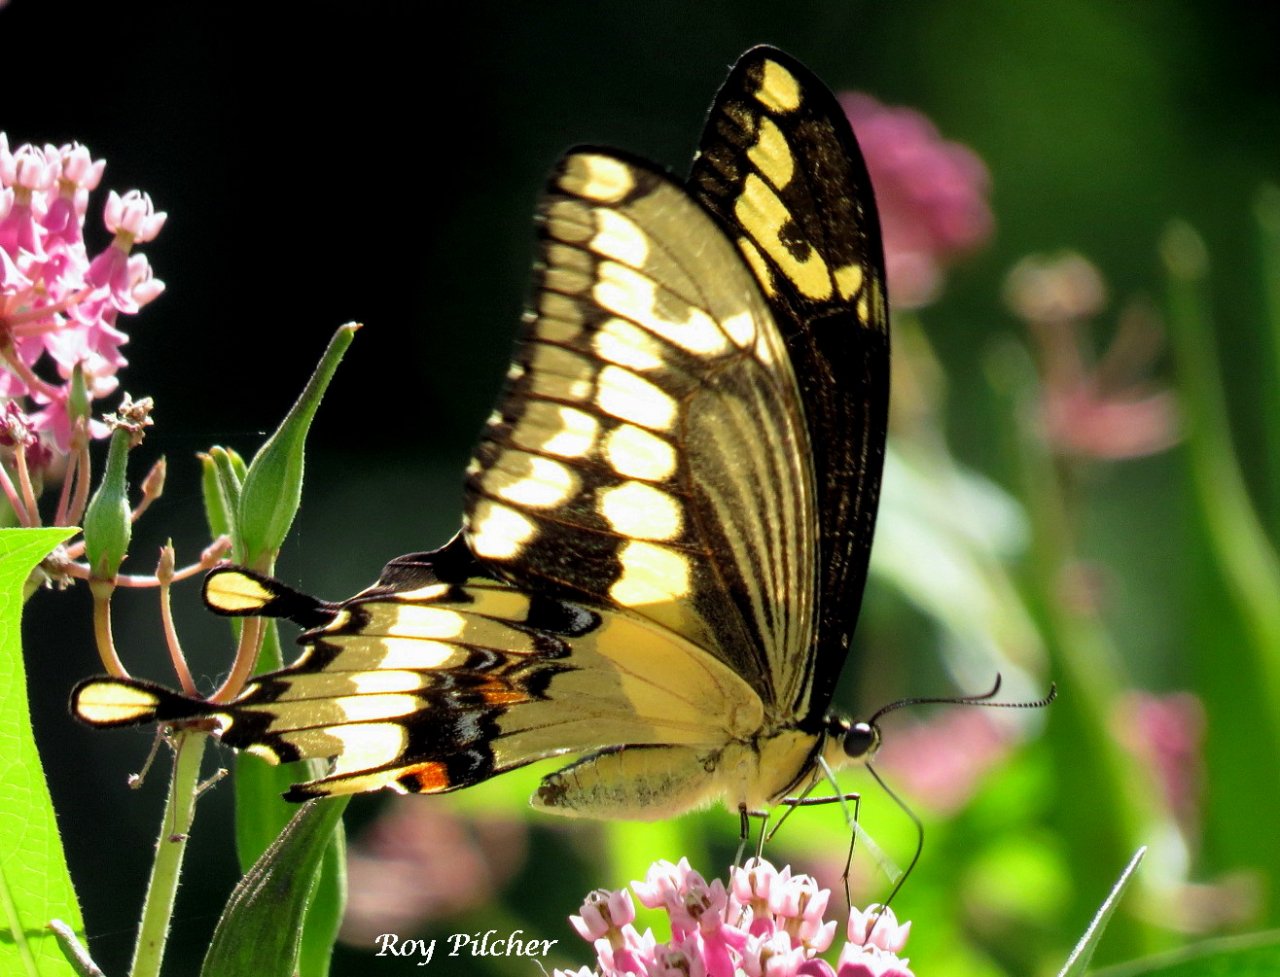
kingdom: Animalia
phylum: Arthropoda
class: Insecta
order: Lepidoptera
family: Papilionidae
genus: Papilio
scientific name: Papilio cresphontes
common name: Eastern Giant Swallowtail
